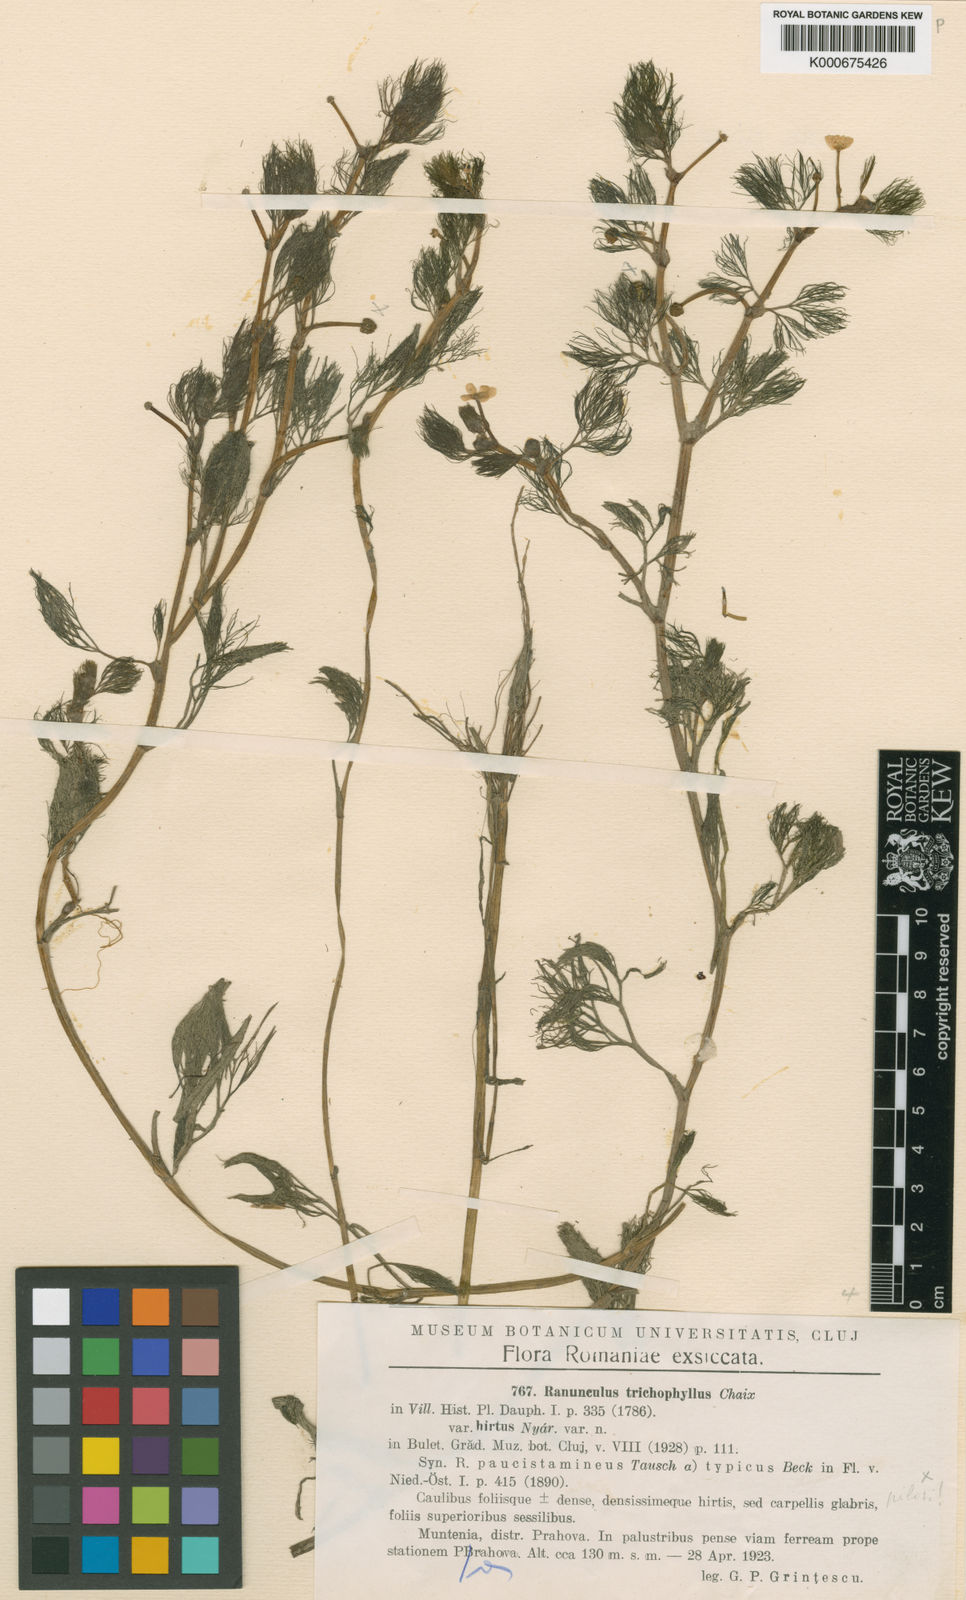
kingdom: Plantae
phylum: Tracheophyta
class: Magnoliopsida
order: Ranunculales
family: Ranunculaceae
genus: Ranunculus
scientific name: Ranunculus
